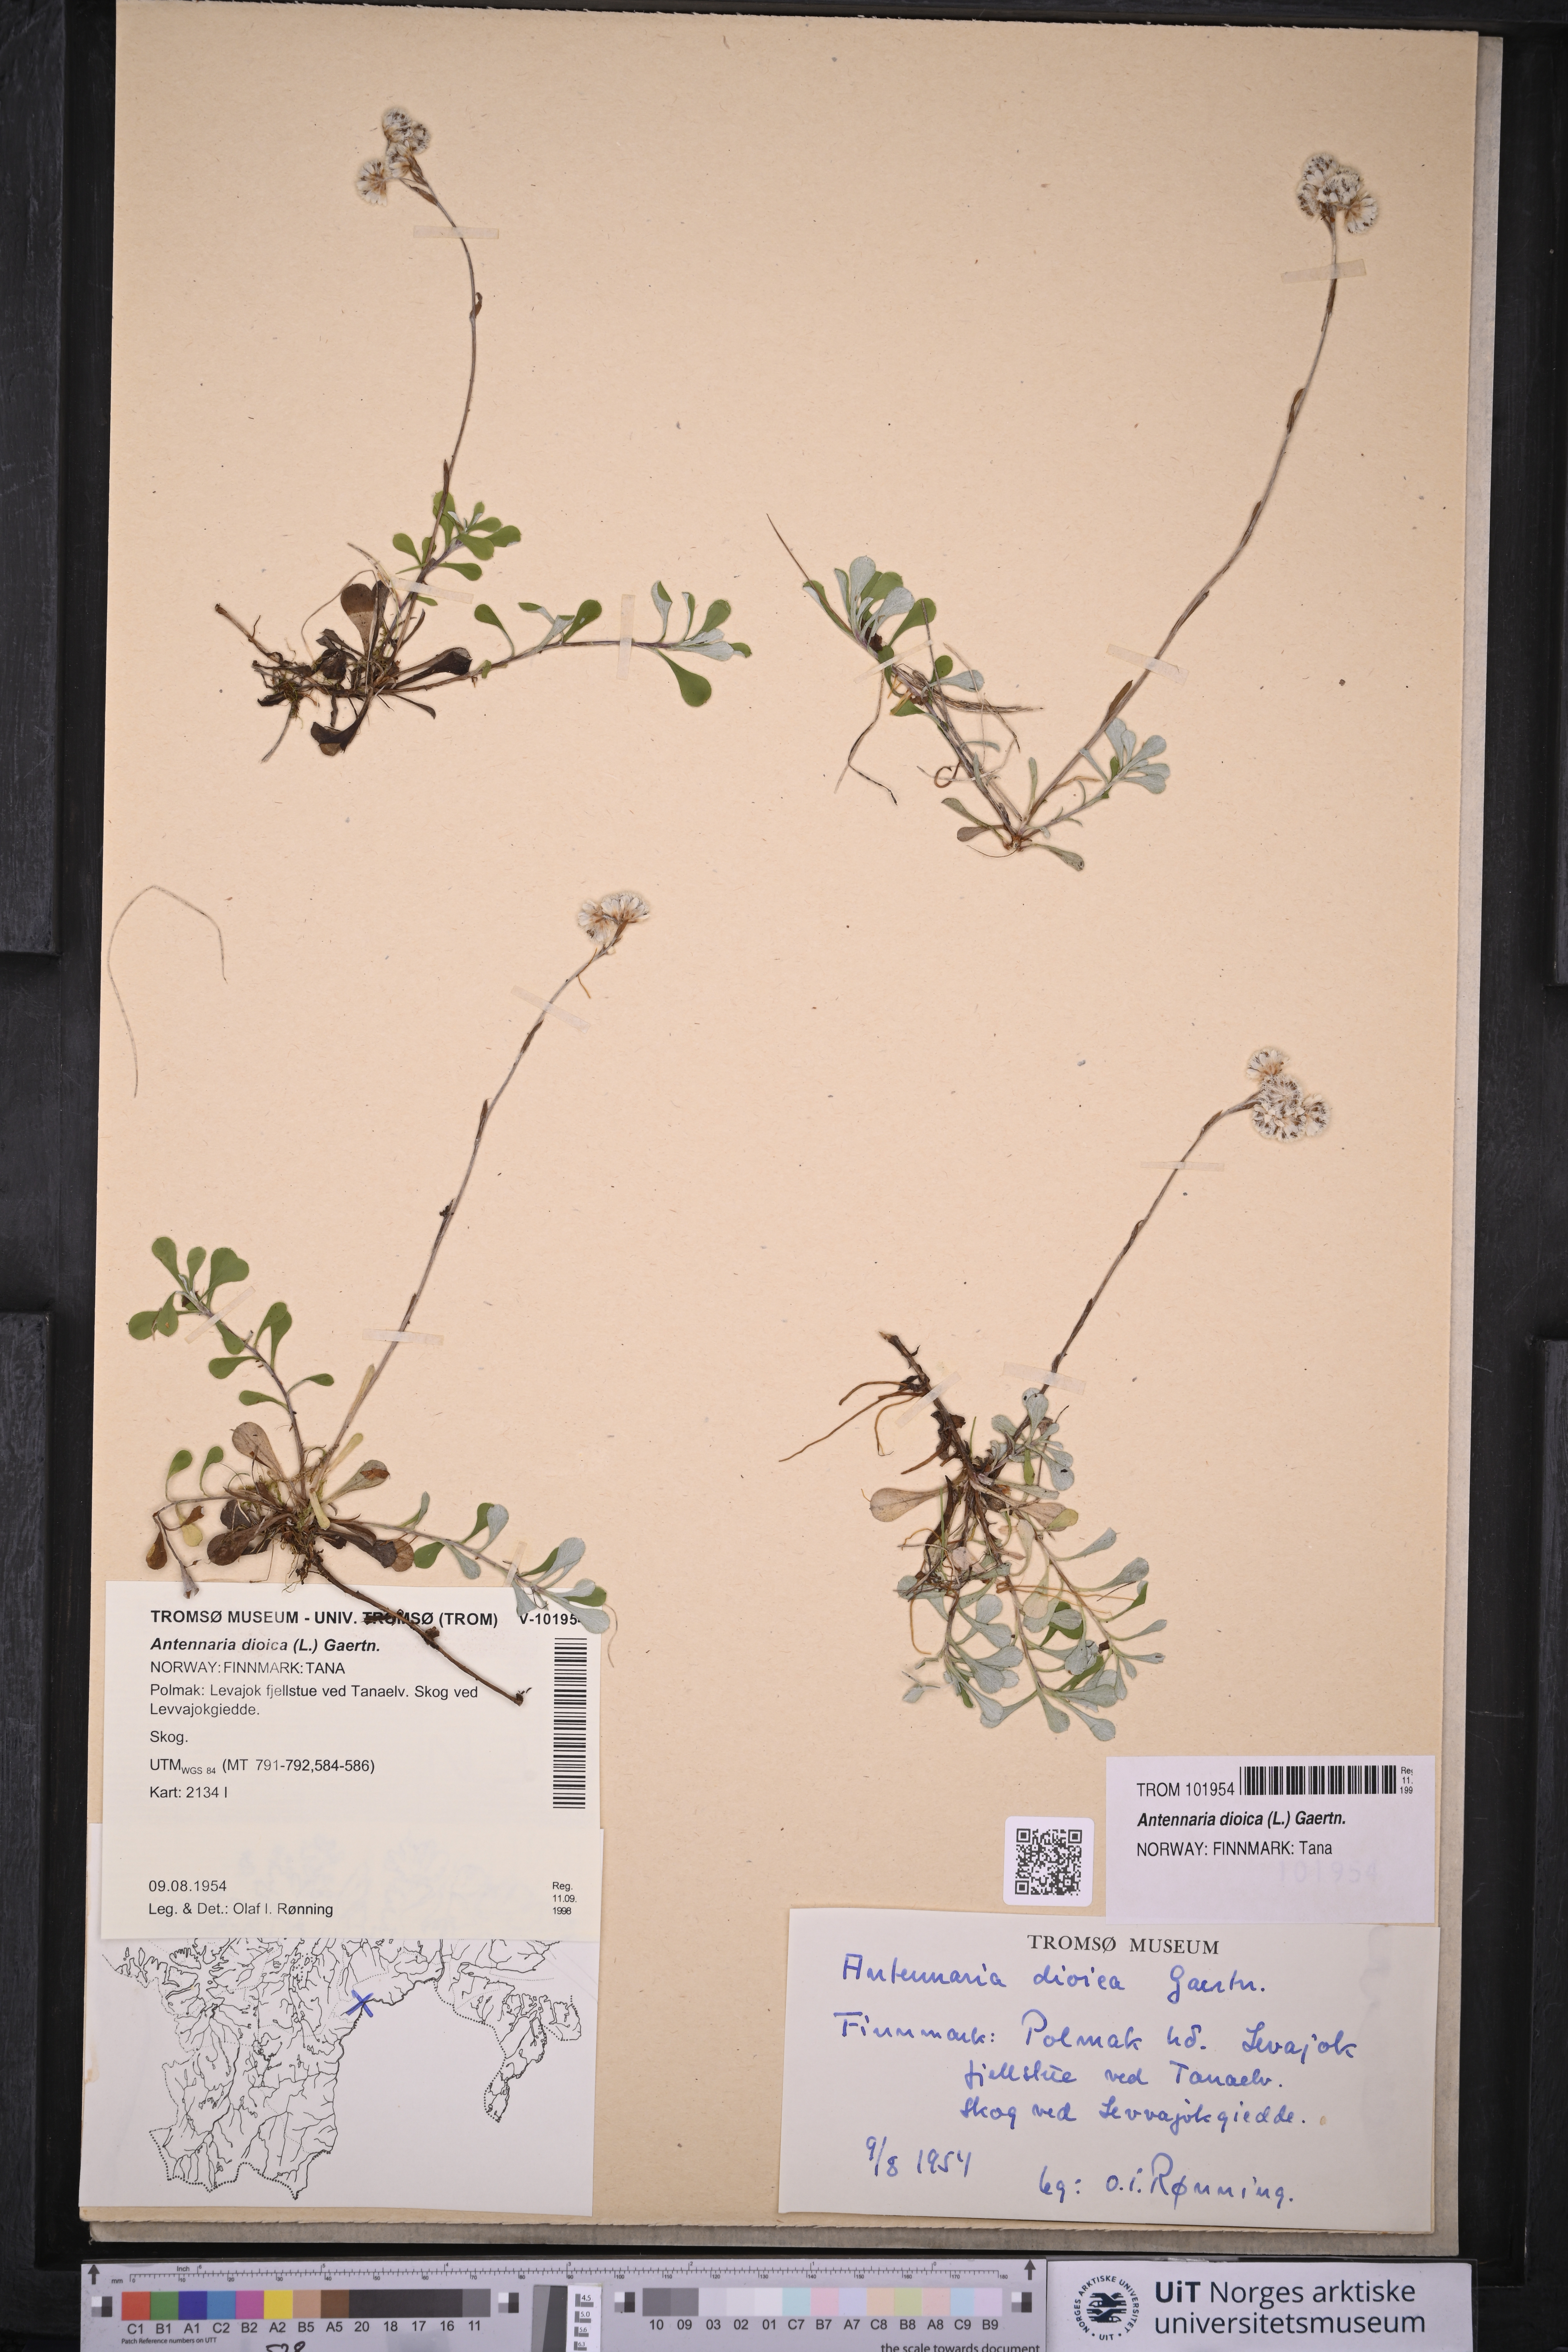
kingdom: Plantae
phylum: Tracheophyta
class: Magnoliopsida
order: Asterales
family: Asteraceae
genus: Antennaria
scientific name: Antennaria dioica
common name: Mountain everlasting
